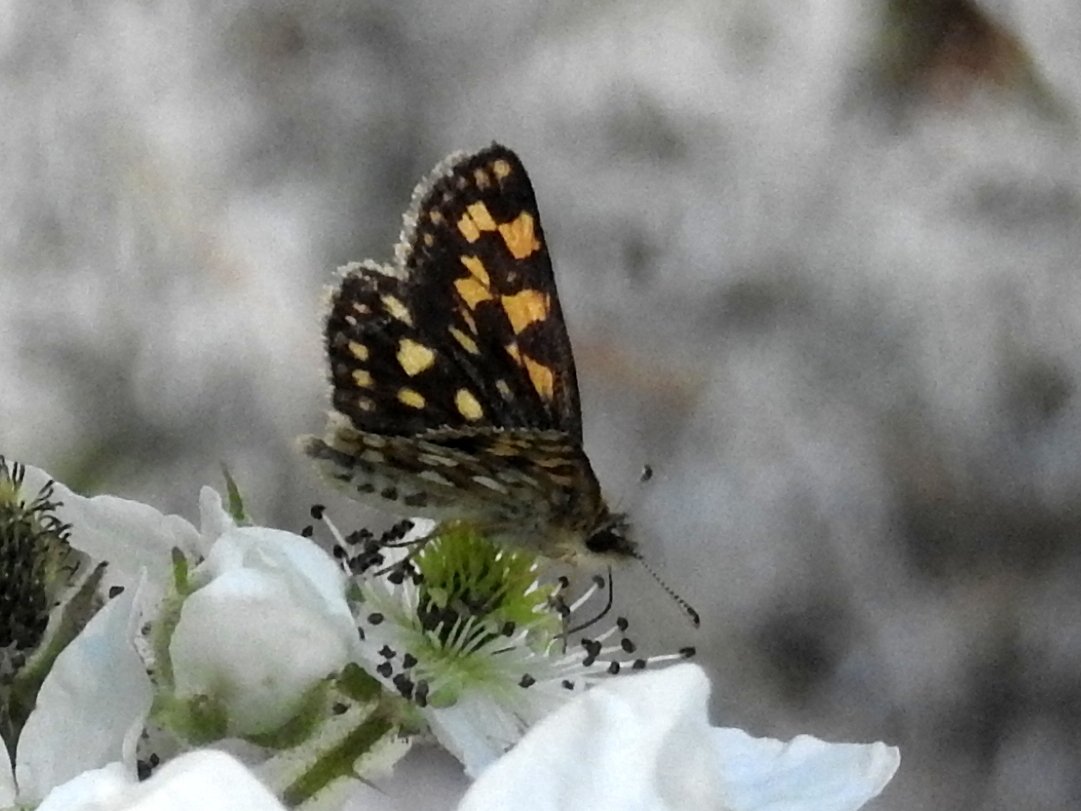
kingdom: Animalia
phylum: Arthropoda
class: Insecta
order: Lepidoptera
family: Hesperiidae
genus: Carterocephalus
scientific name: Carterocephalus palaemon
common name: Chequered Skipper
